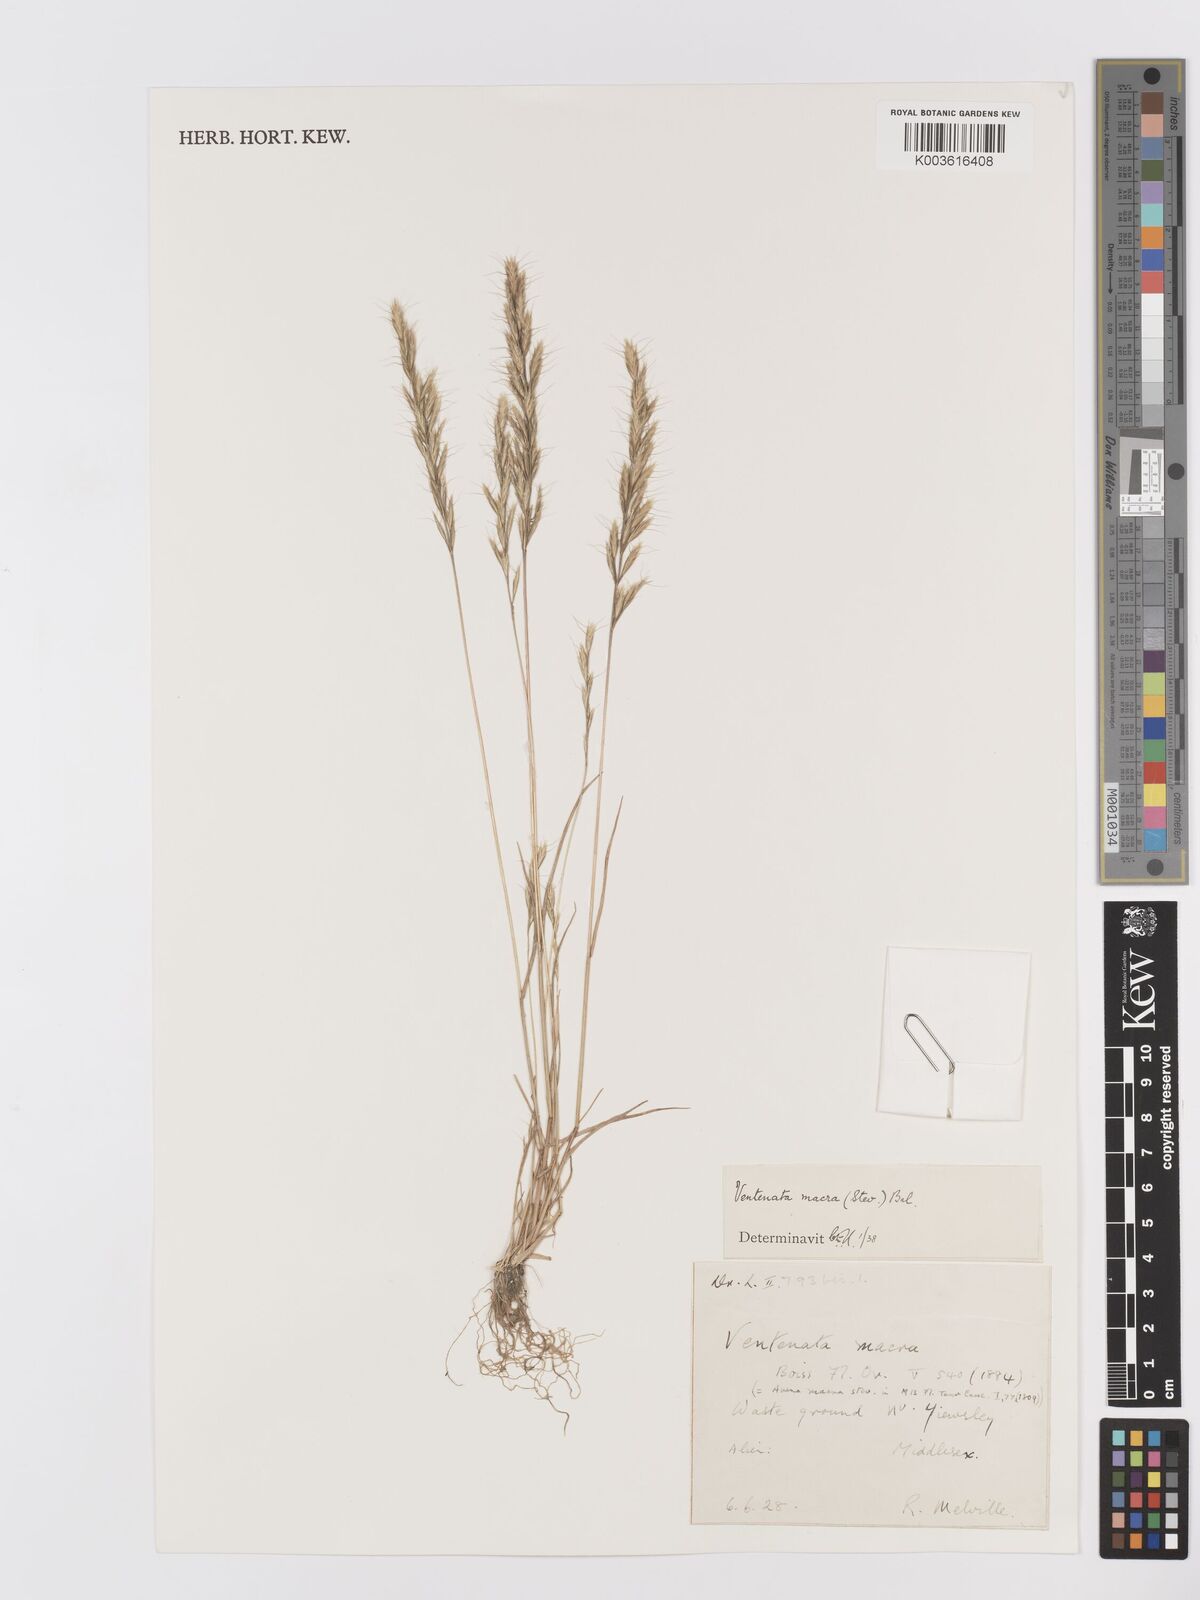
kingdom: Plantae
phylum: Tracheophyta
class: Liliopsida
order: Poales
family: Poaceae
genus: Ventenata
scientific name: Ventenata macra
